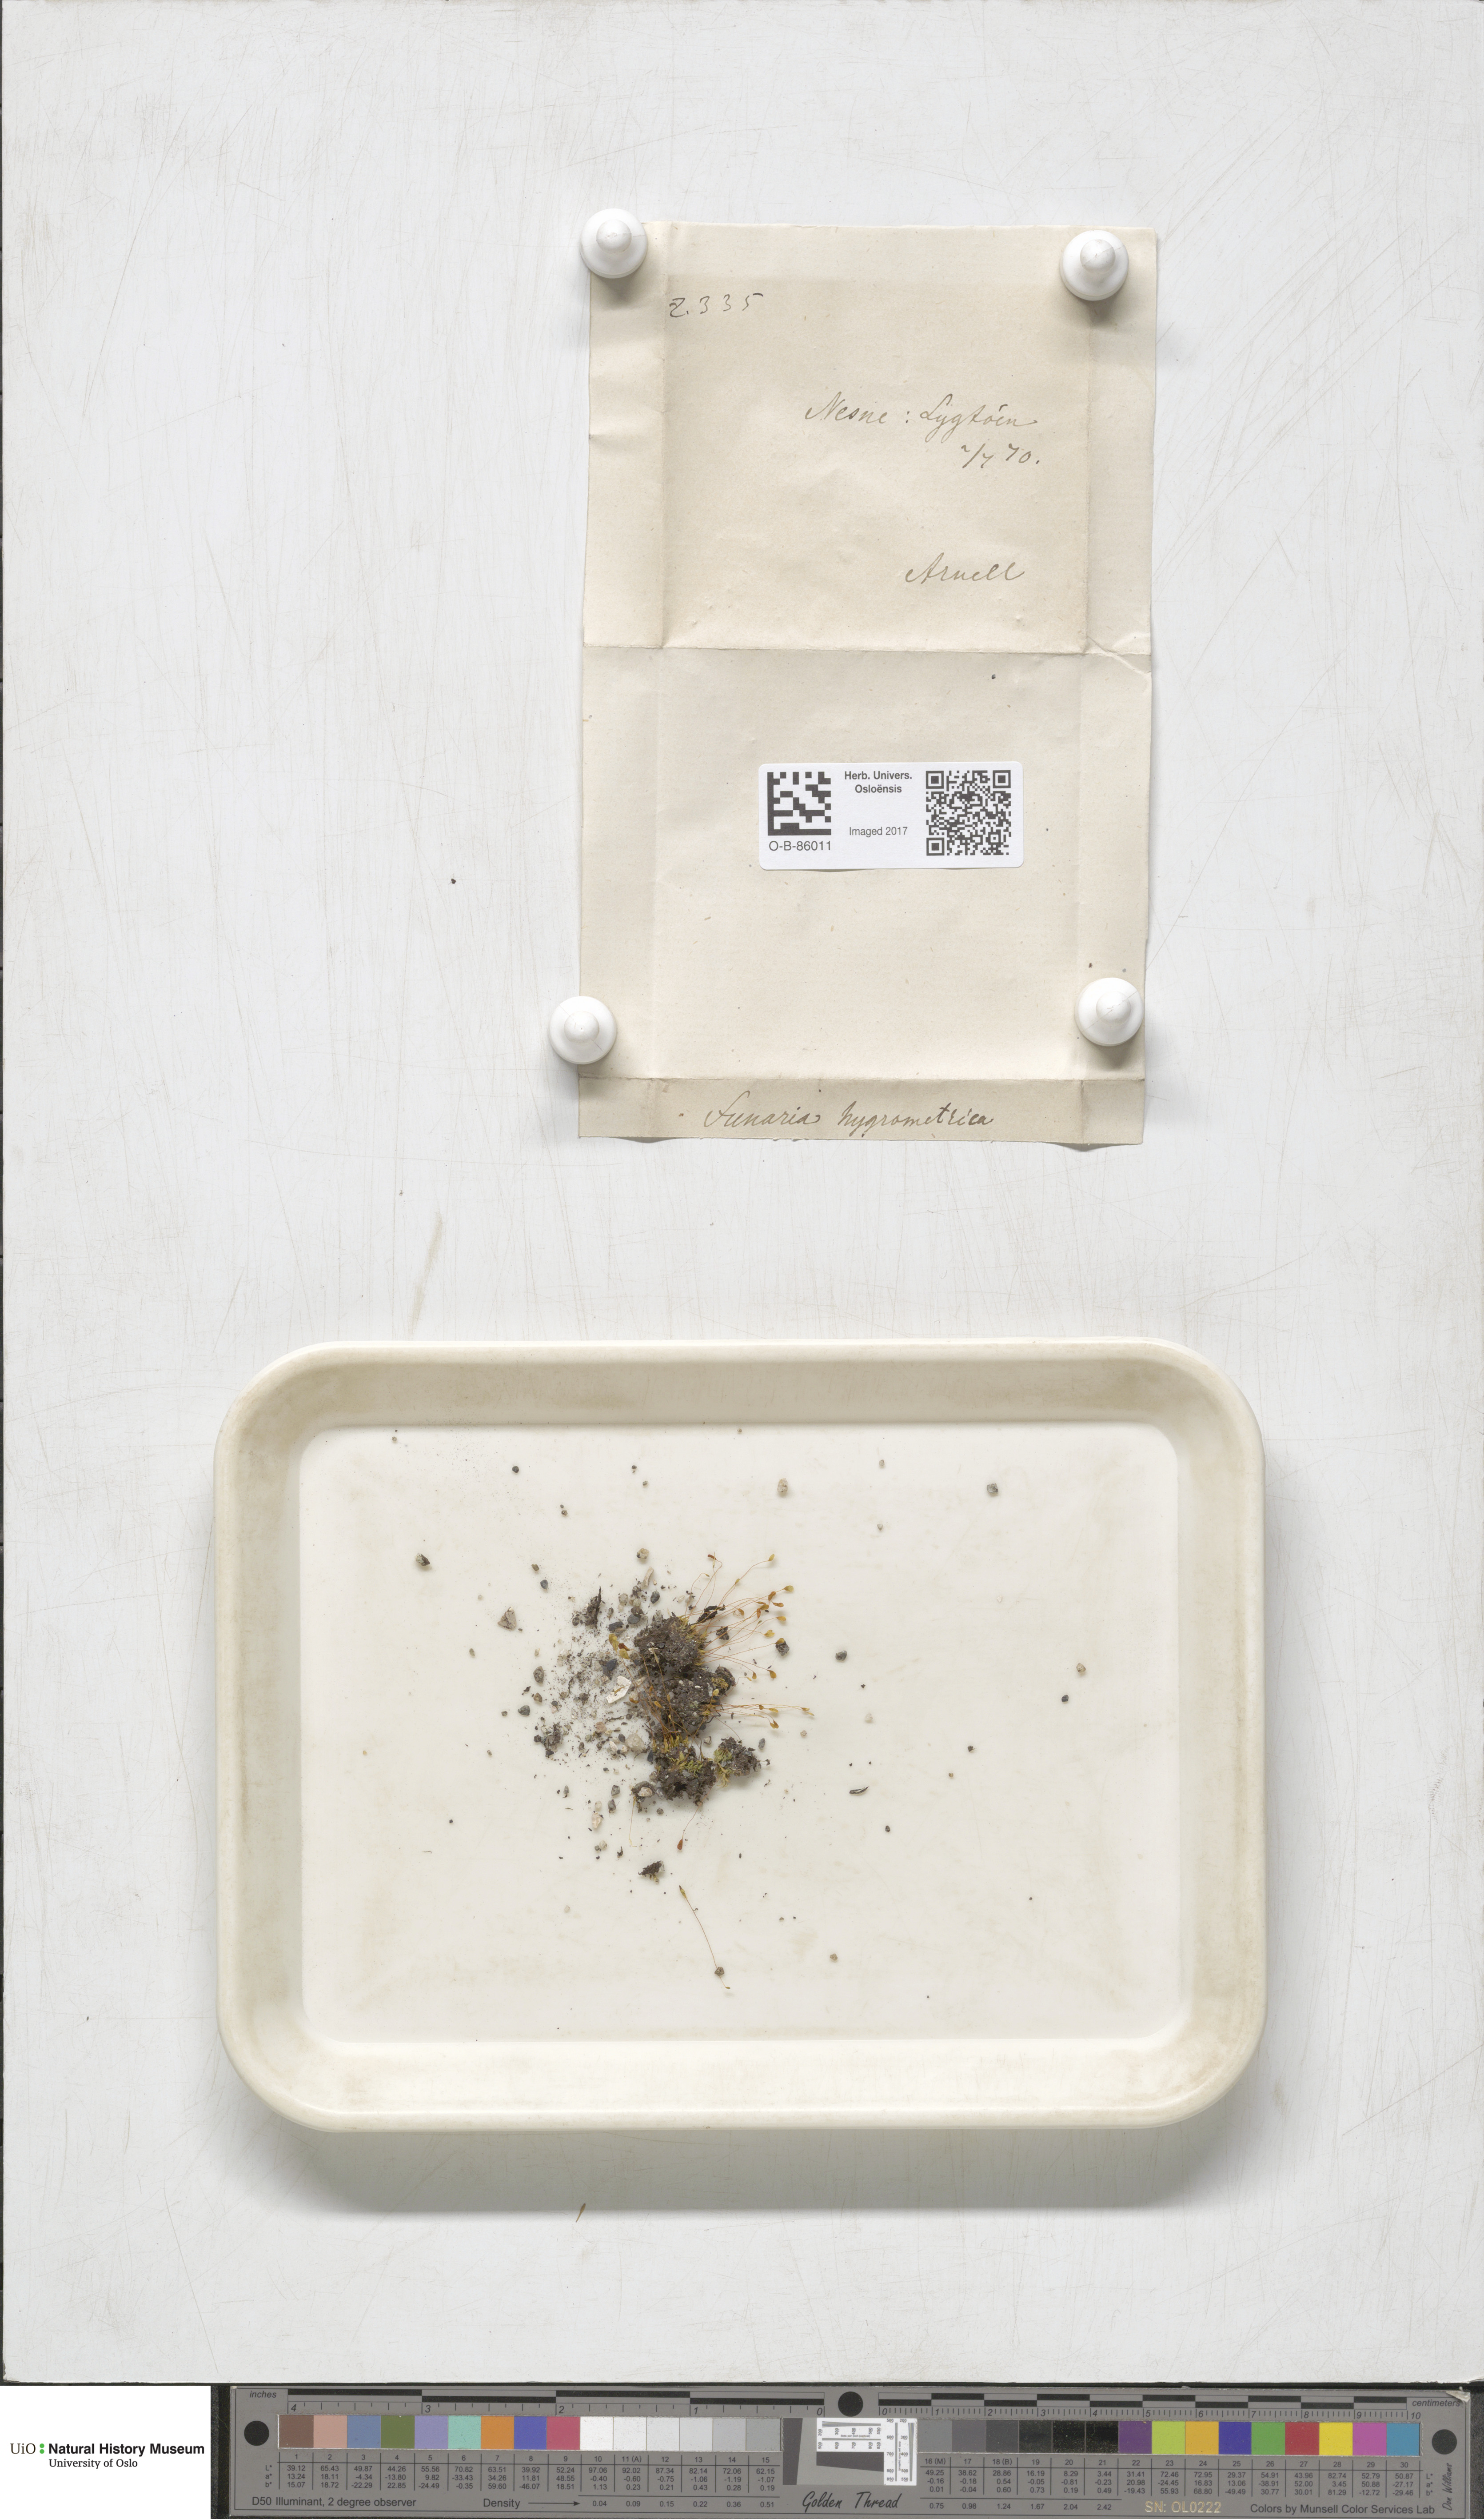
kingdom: Plantae
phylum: Bryophyta
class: Bryopsida
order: Funariales
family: Funariaceae
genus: Funaria
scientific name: Funaria hygrometrica
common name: Common cord moss
